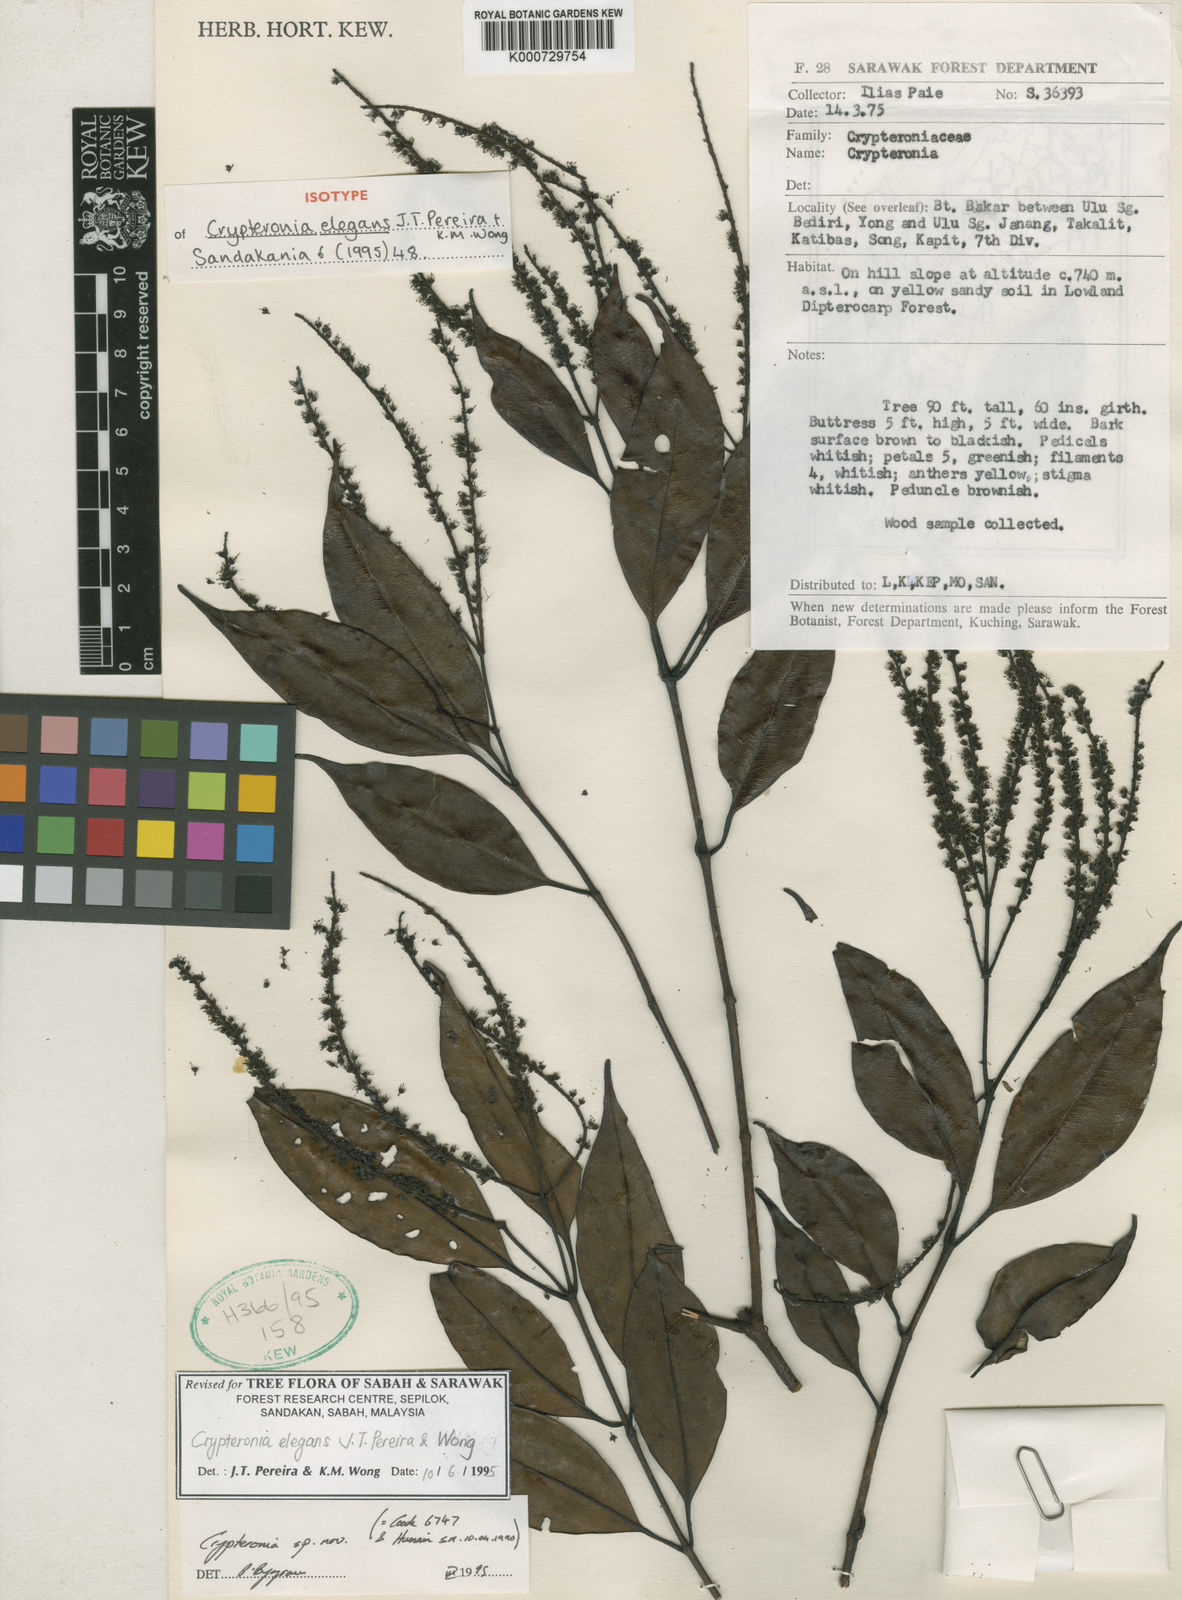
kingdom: Plantae
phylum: Tracheophyta
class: Magnoliopsida
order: Myrtales
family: Crypteroniaceae
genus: Crypteronia
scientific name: Crypteronia elegans
